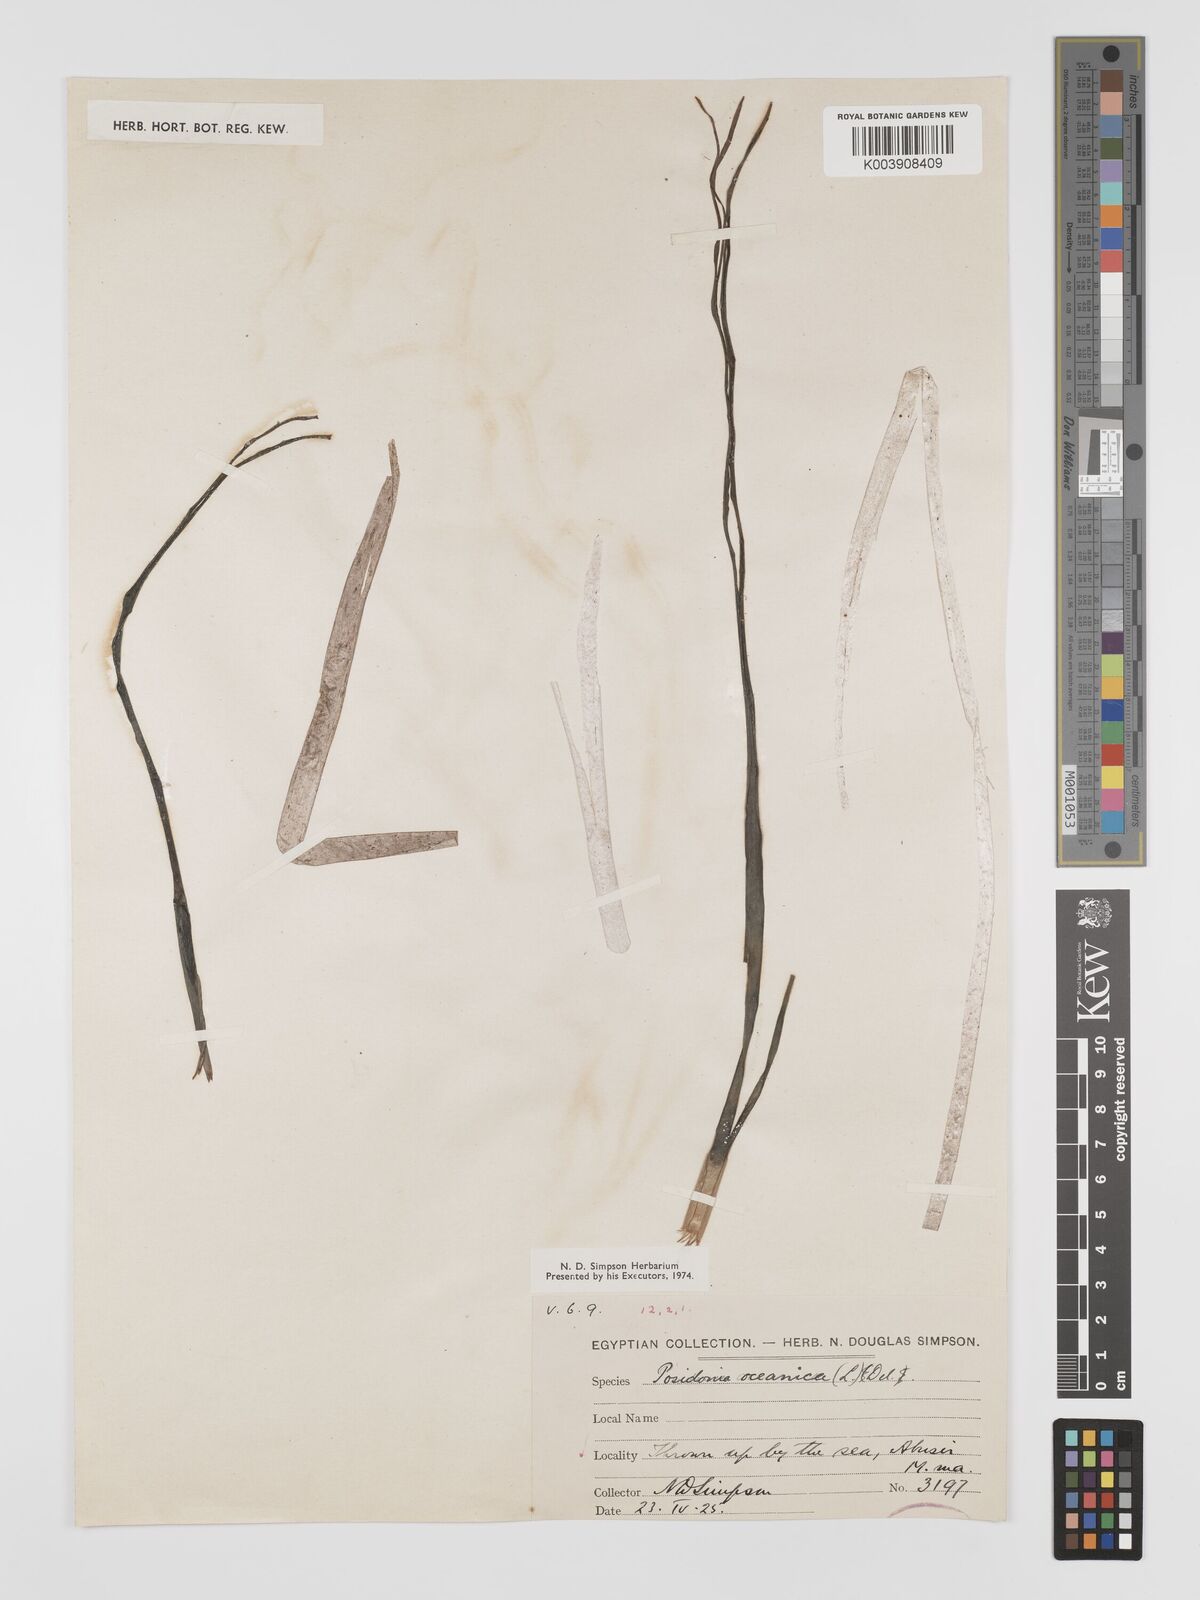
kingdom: Plantae
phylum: Tracheophyta
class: Liliopsida
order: Alismatales
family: Posidoniaceae
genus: Posidonia
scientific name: Posidonia oceanica
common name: Mediterranean tapeweed
